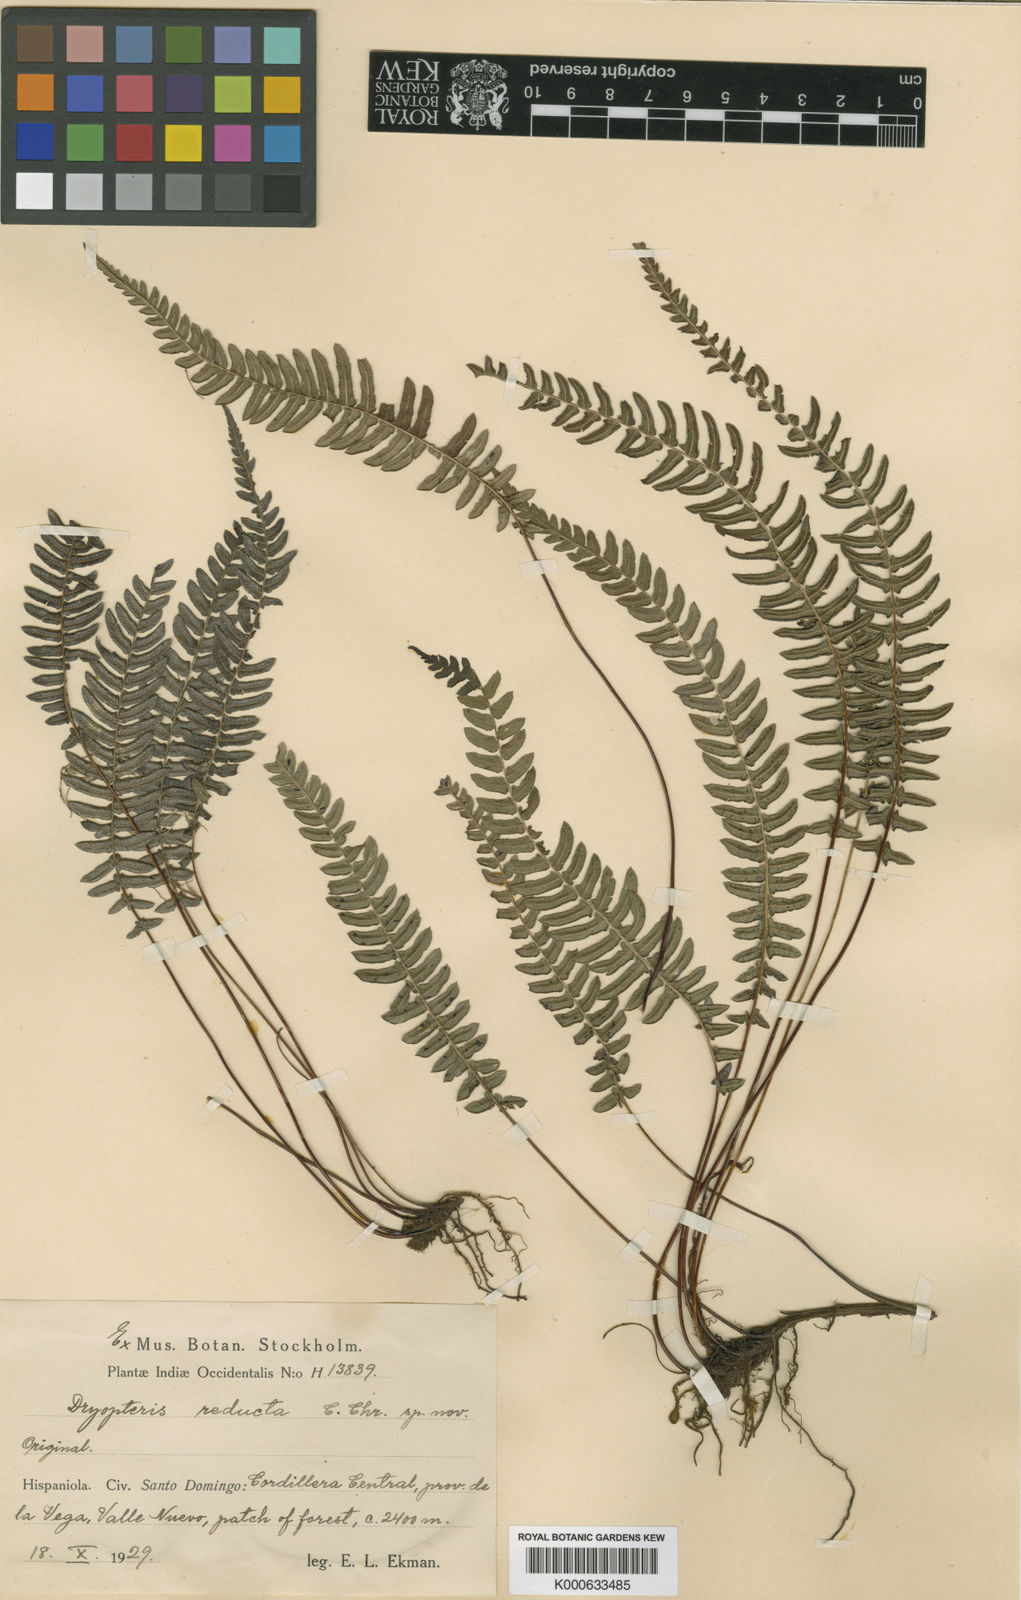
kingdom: Plantae
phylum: Tracheophyta
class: Polypodiopsida
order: Polypodiales
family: Thelypteridaceae
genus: Amauropelta
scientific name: Amauropelta reducta
